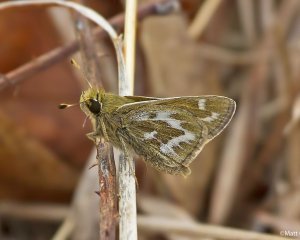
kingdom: Animalia
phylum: Arthropoda
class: Insecta
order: Lepidoptera
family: Hesperiidae
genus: Hesperia
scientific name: Hesperia metea
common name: Cobweb Skipper
